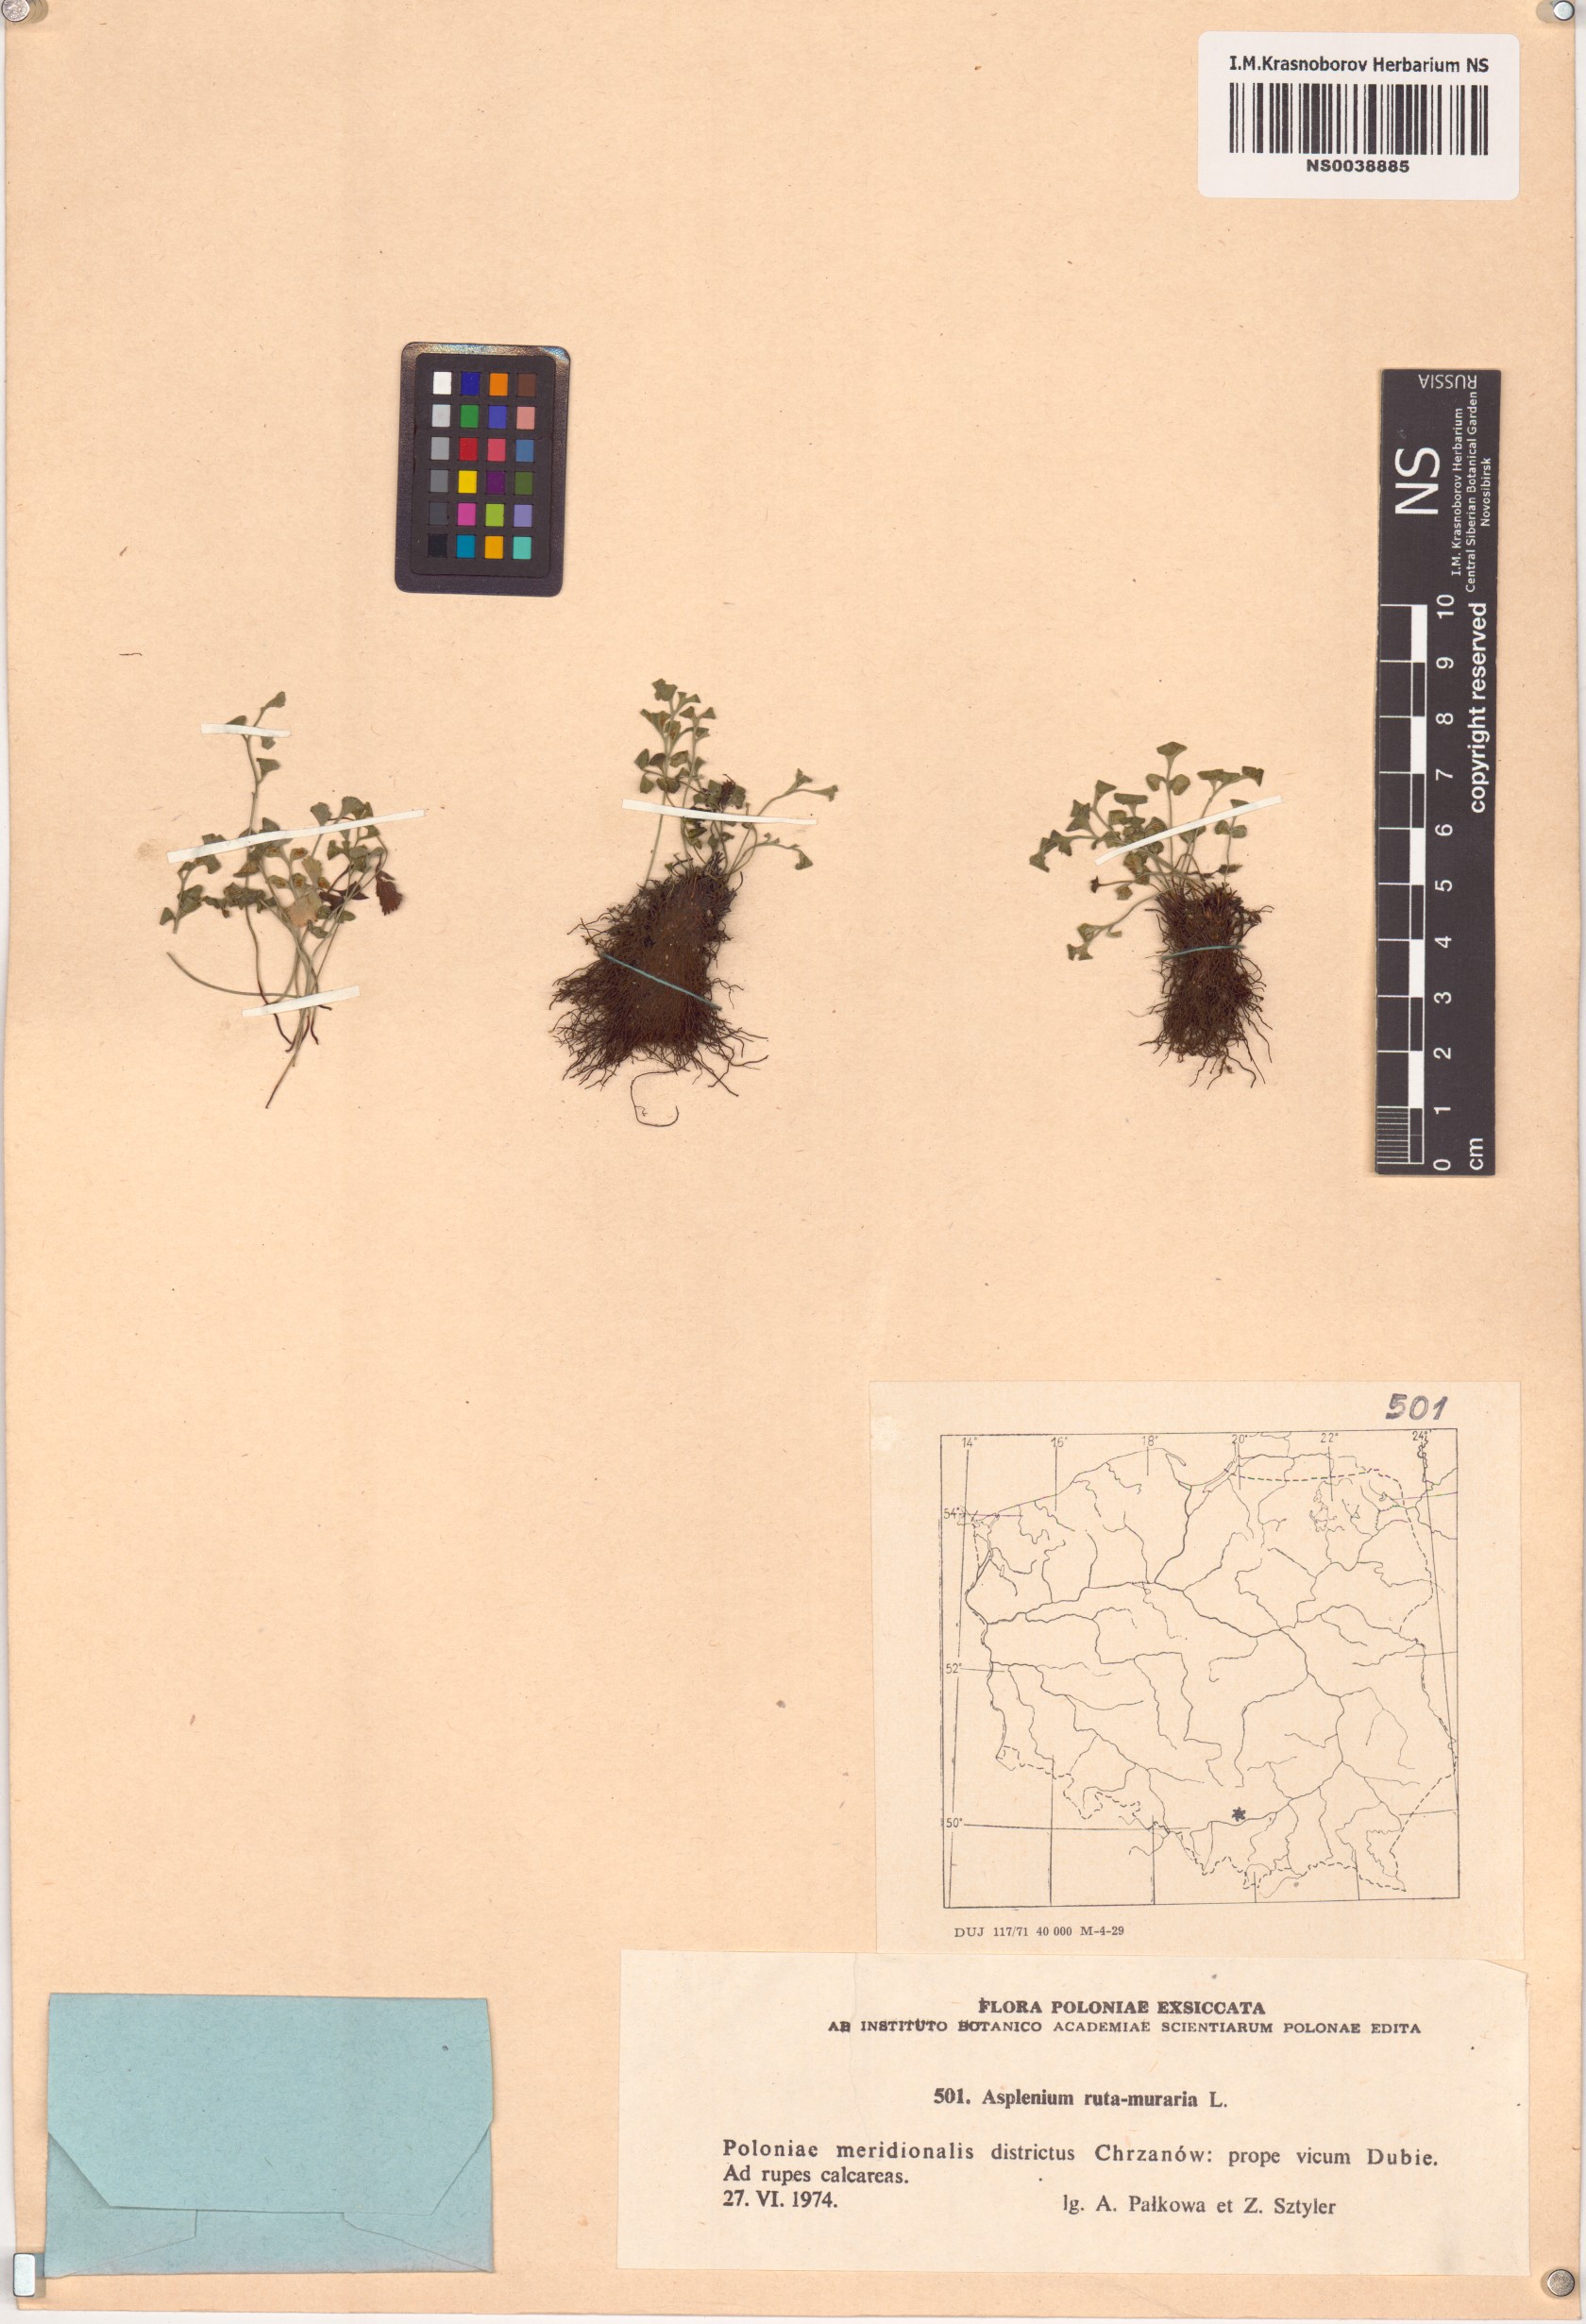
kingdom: Plantae
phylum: Tracheophyta
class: Polypodiopsida
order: Polypodiales
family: Aspleniaceae
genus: Asplenium
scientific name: Asplenium ruta-muraria
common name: Wall-rue
